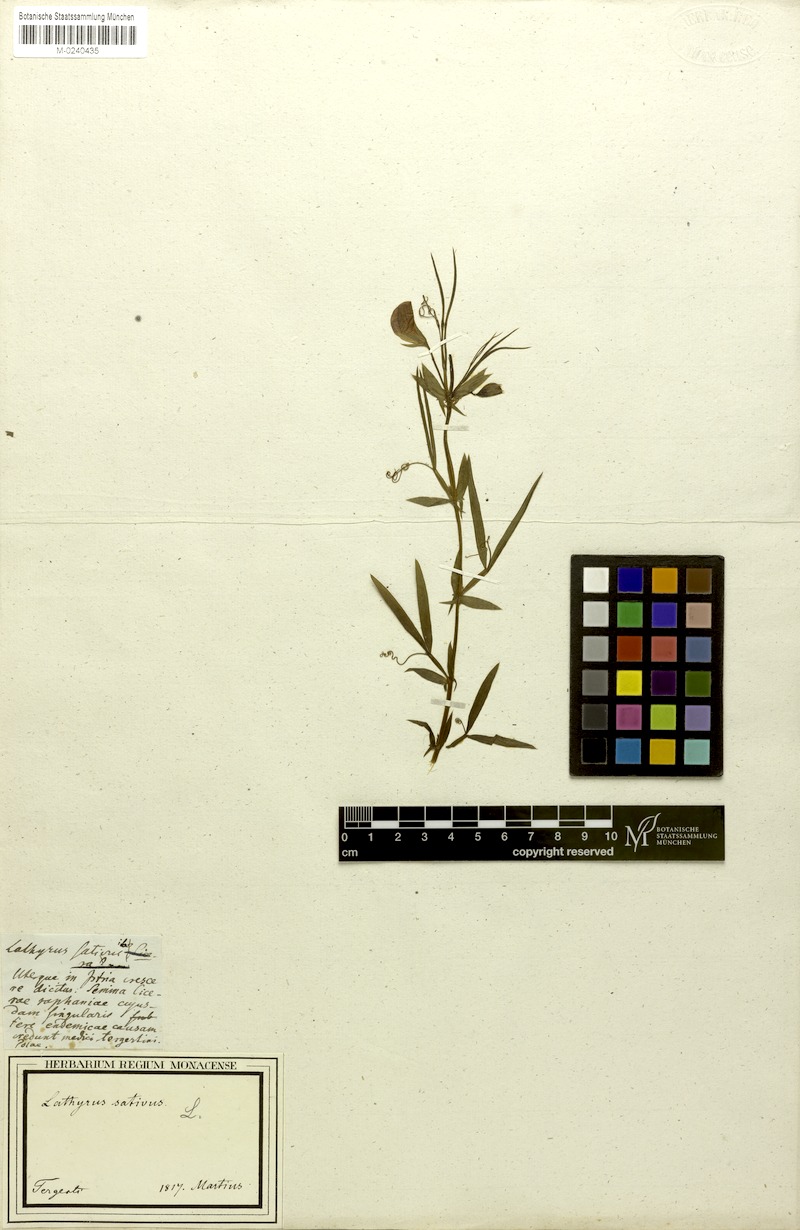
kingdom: Plantae
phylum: Tracheophyta
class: Magnoliopsida
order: Fabales
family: Fabaceae
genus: Lathyrus
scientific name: Lathyrus sativus
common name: Indian pea
